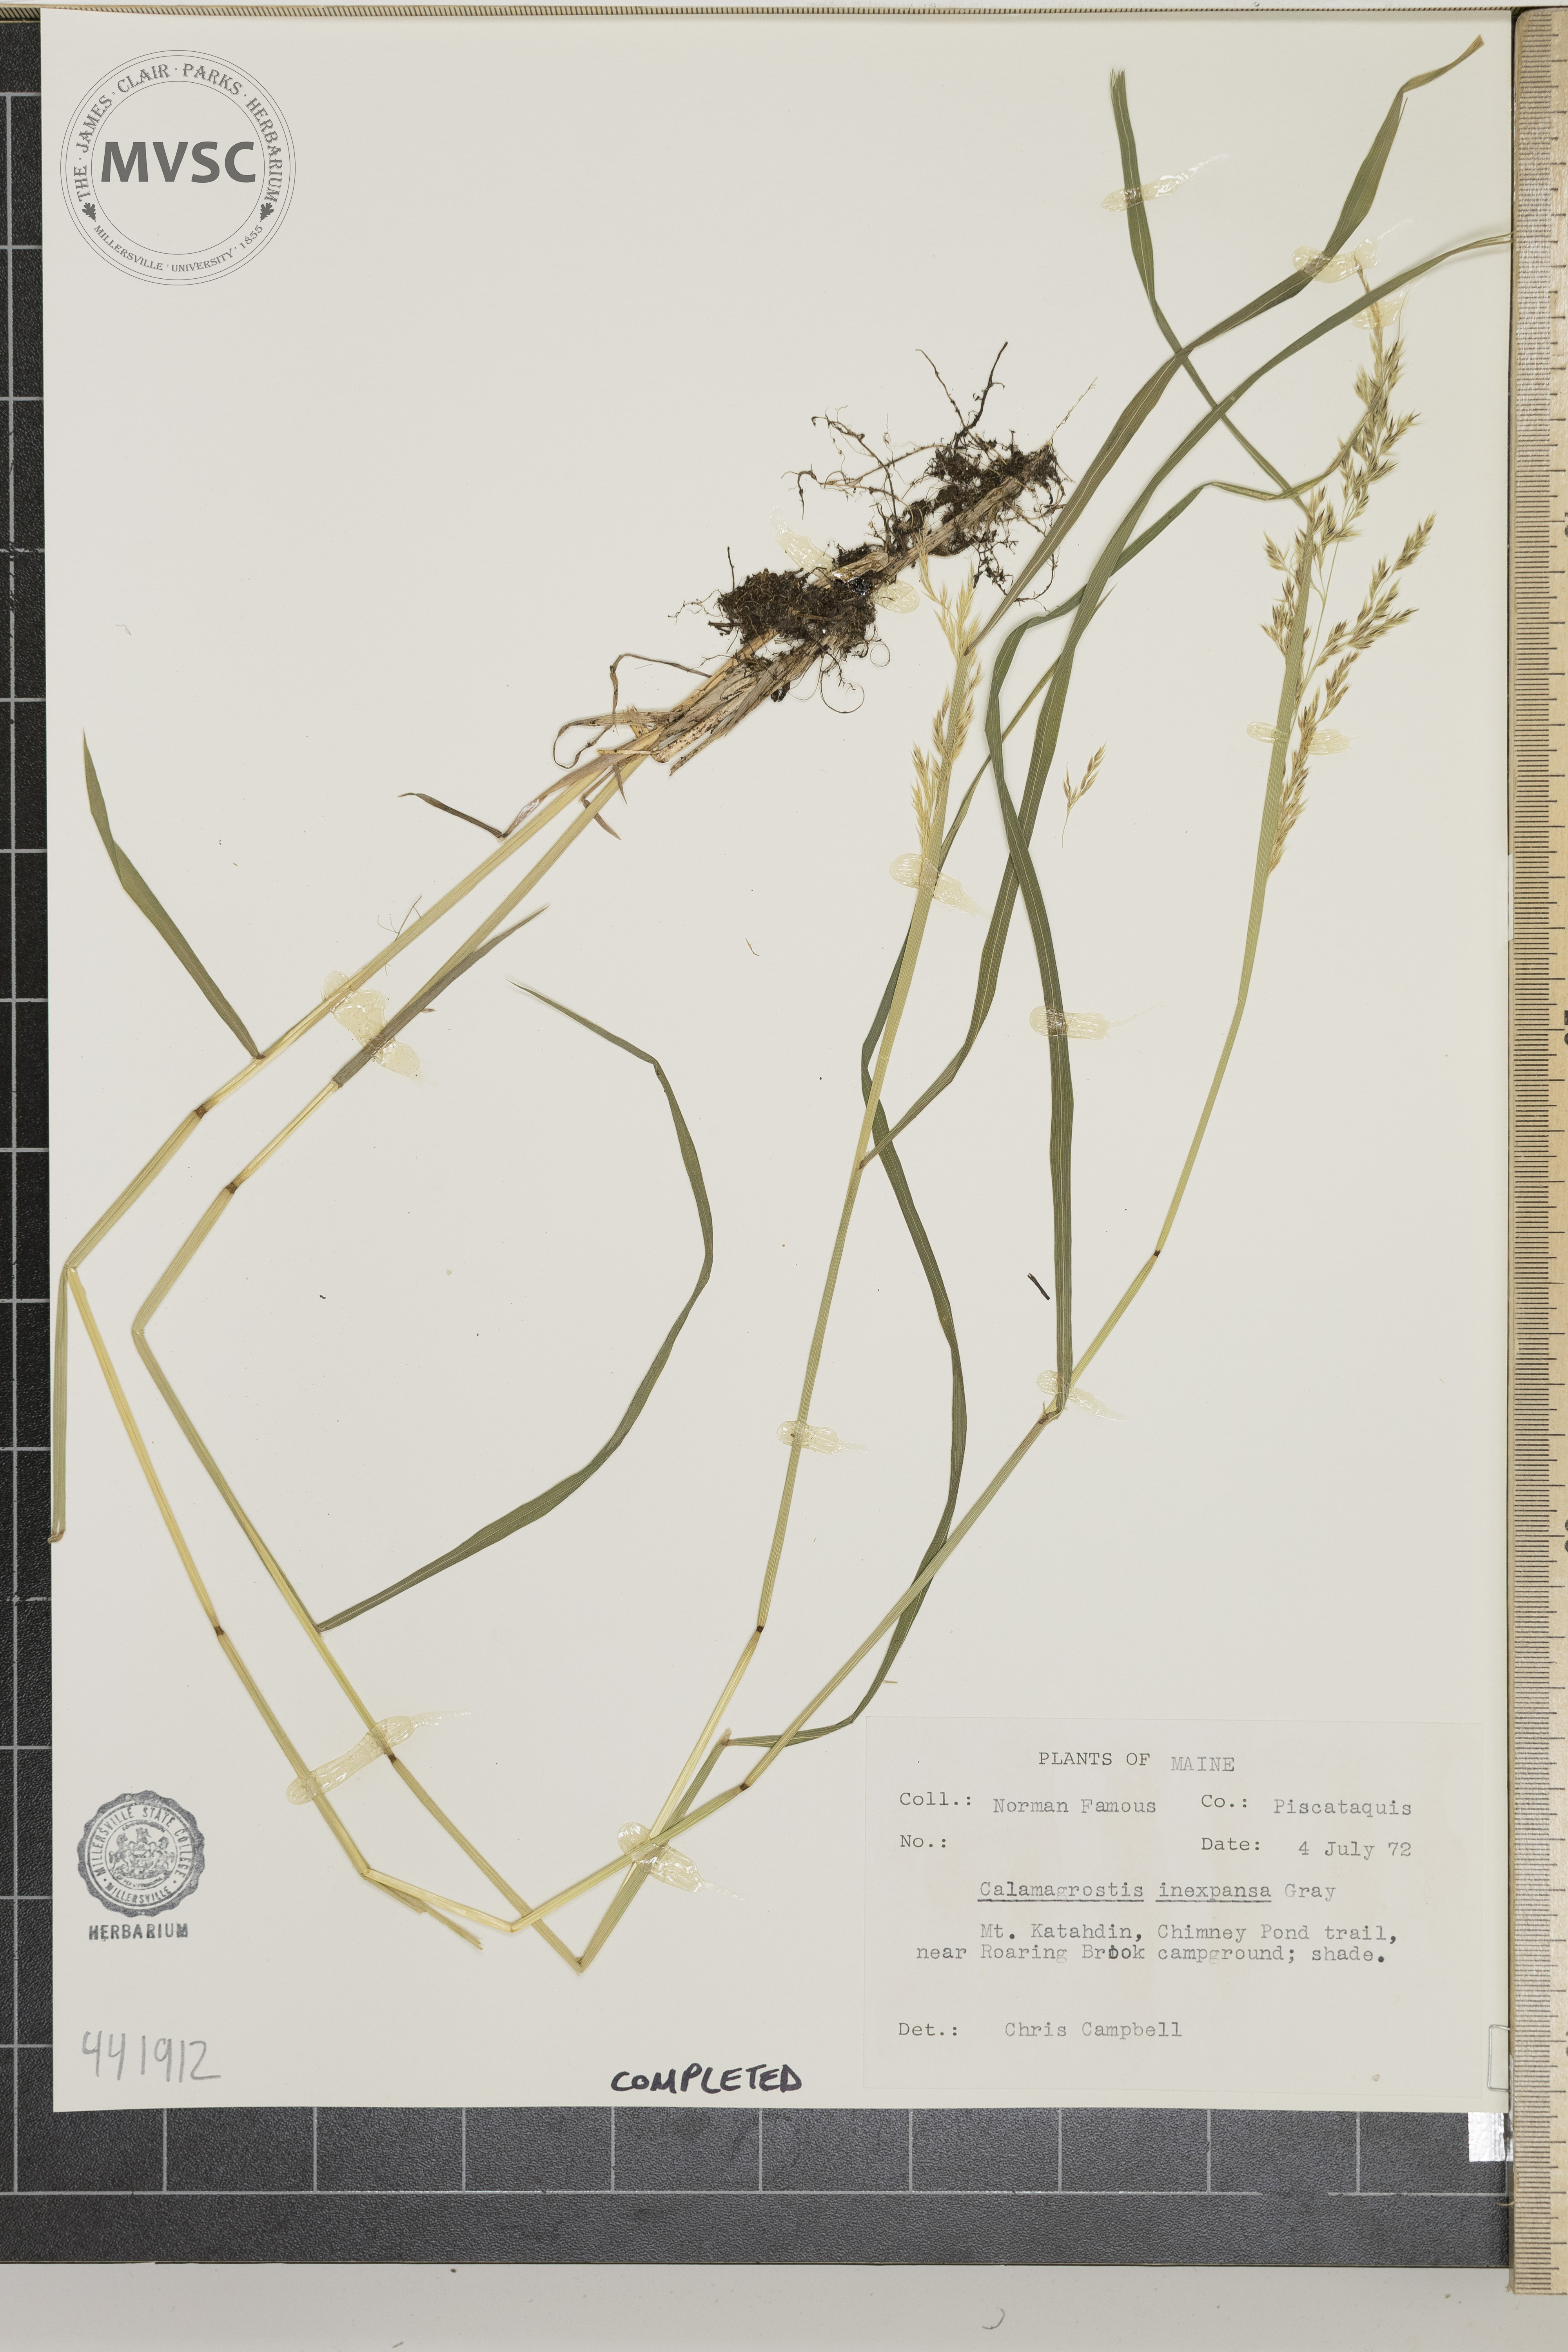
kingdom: Plantae
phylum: Tracheophyta
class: Liliopsida
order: Poales
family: Poaceae
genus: Calamagrostis
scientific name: Calamagrostis inexpansa
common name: Northern reedgrass
